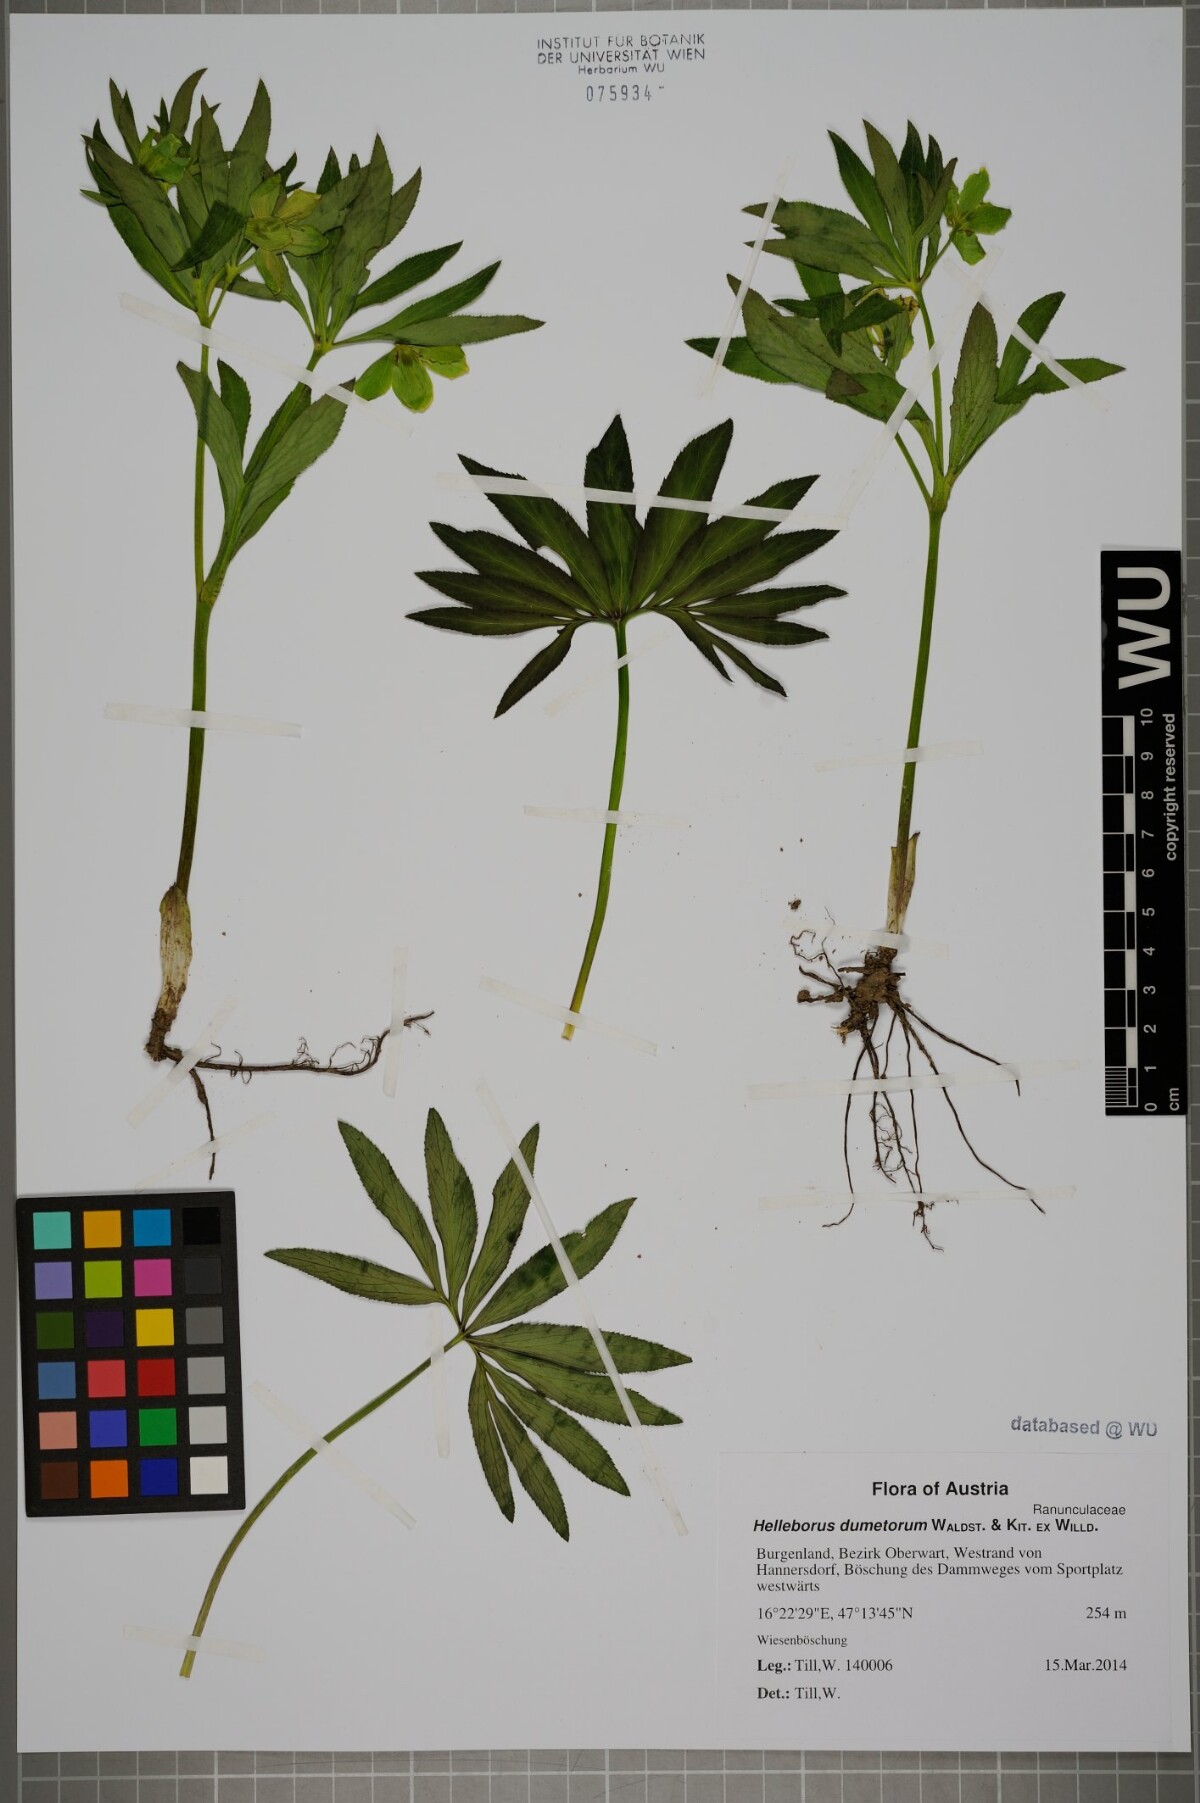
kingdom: Plantae
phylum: Tracheophyta
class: Magnoliopsida
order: Ranunculales
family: Ranunculaceae
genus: Helleborus
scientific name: Helleborus dumetorum
